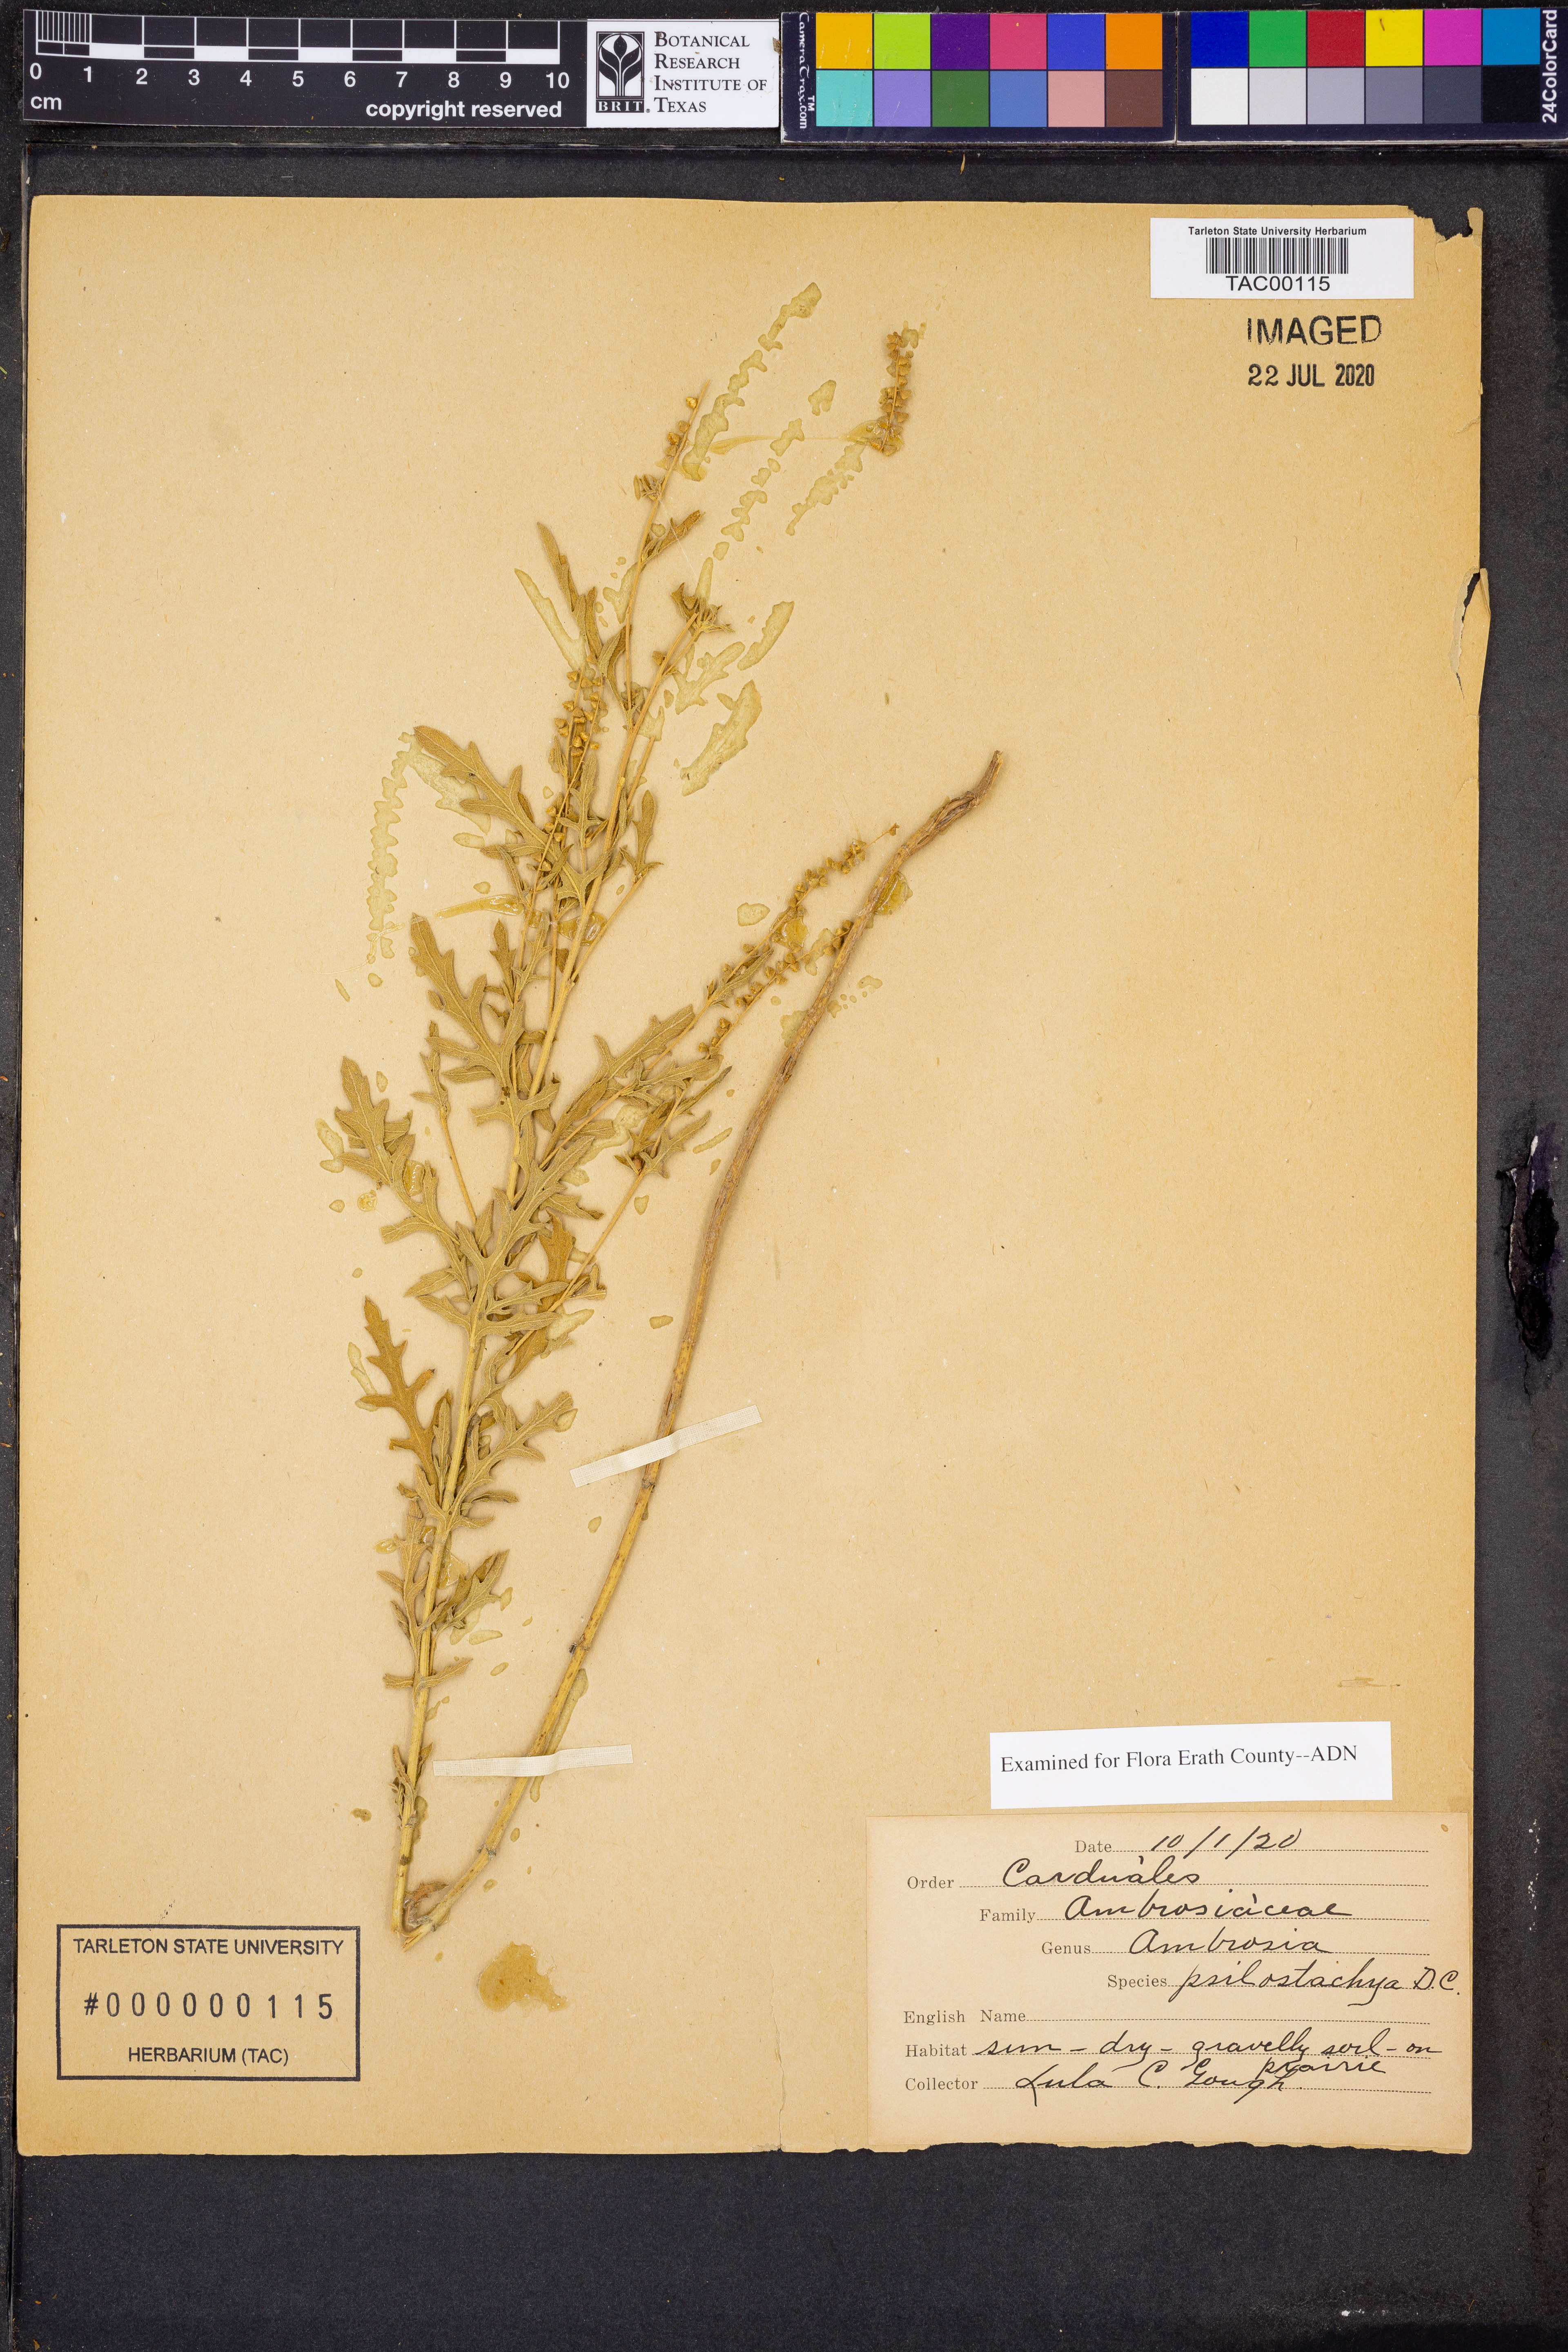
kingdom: Plantae
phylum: Tracheophyta
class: Magnoliopsida
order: Asterales
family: Asteraceae
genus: Ambrosia
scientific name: Ambrosia psilostachya
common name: Perennial ragweed
